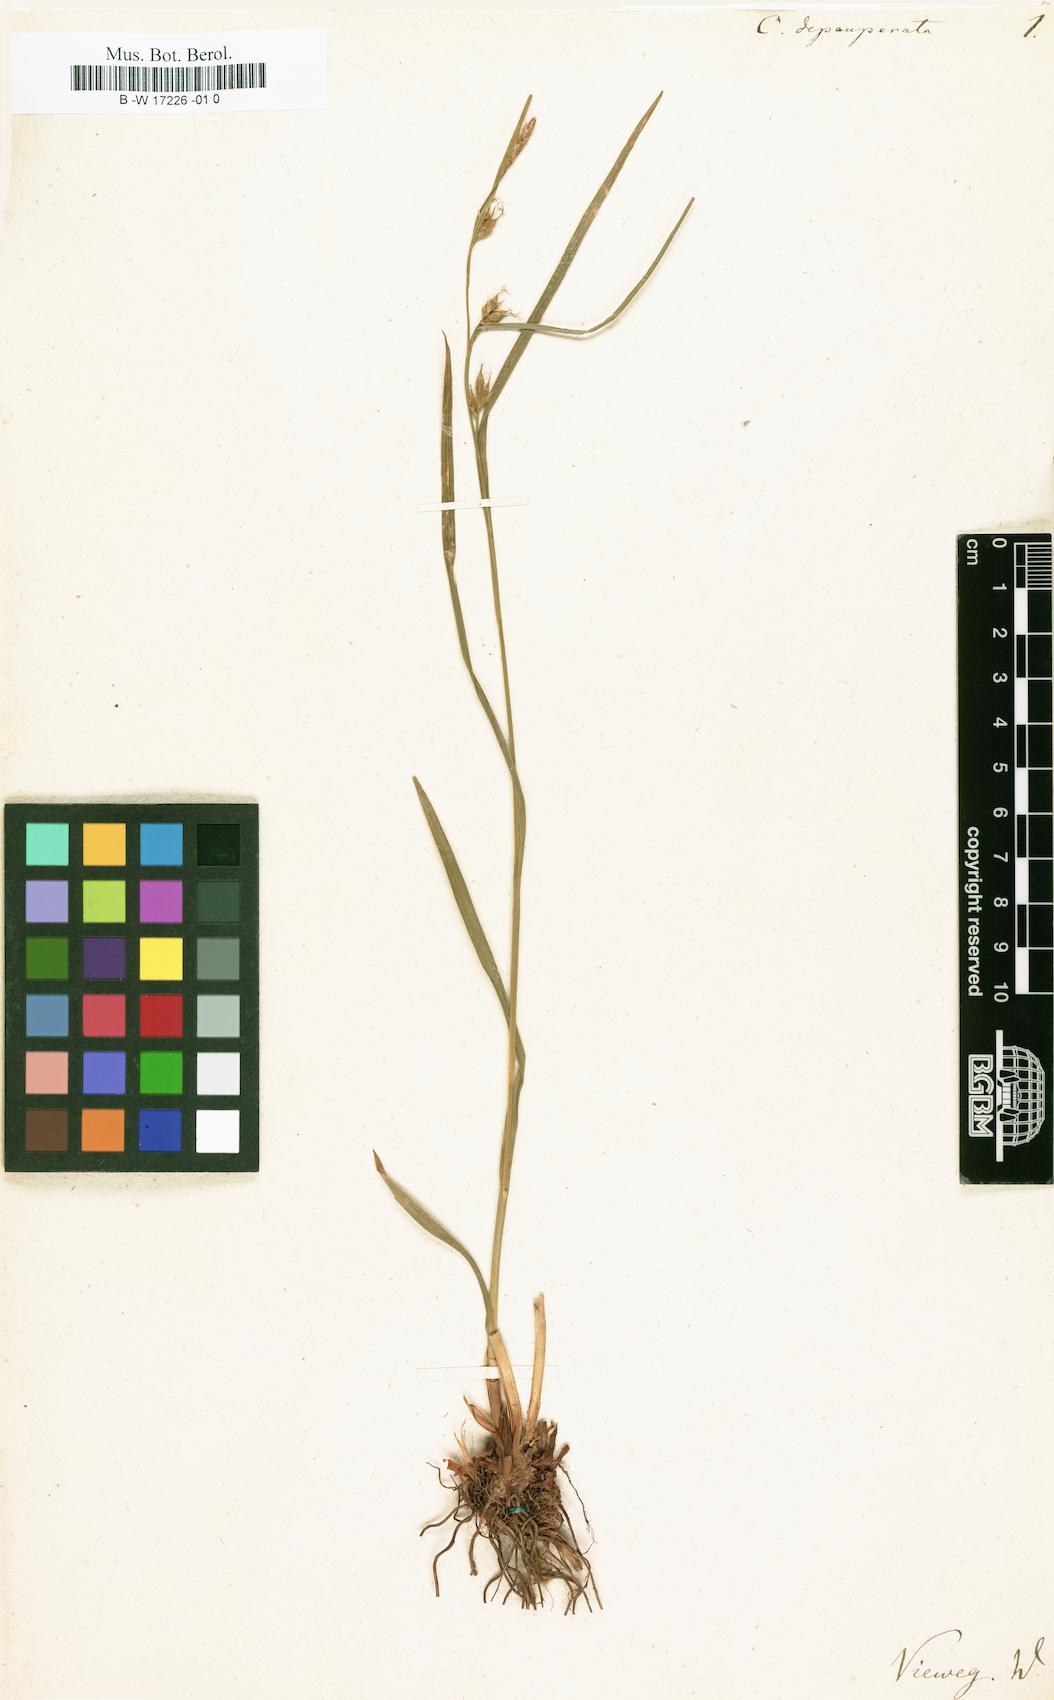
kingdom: Plantae
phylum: Tracheophyta
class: Liliopsida
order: Poales
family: Cyperaceae
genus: Carex
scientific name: Carex depauperata
